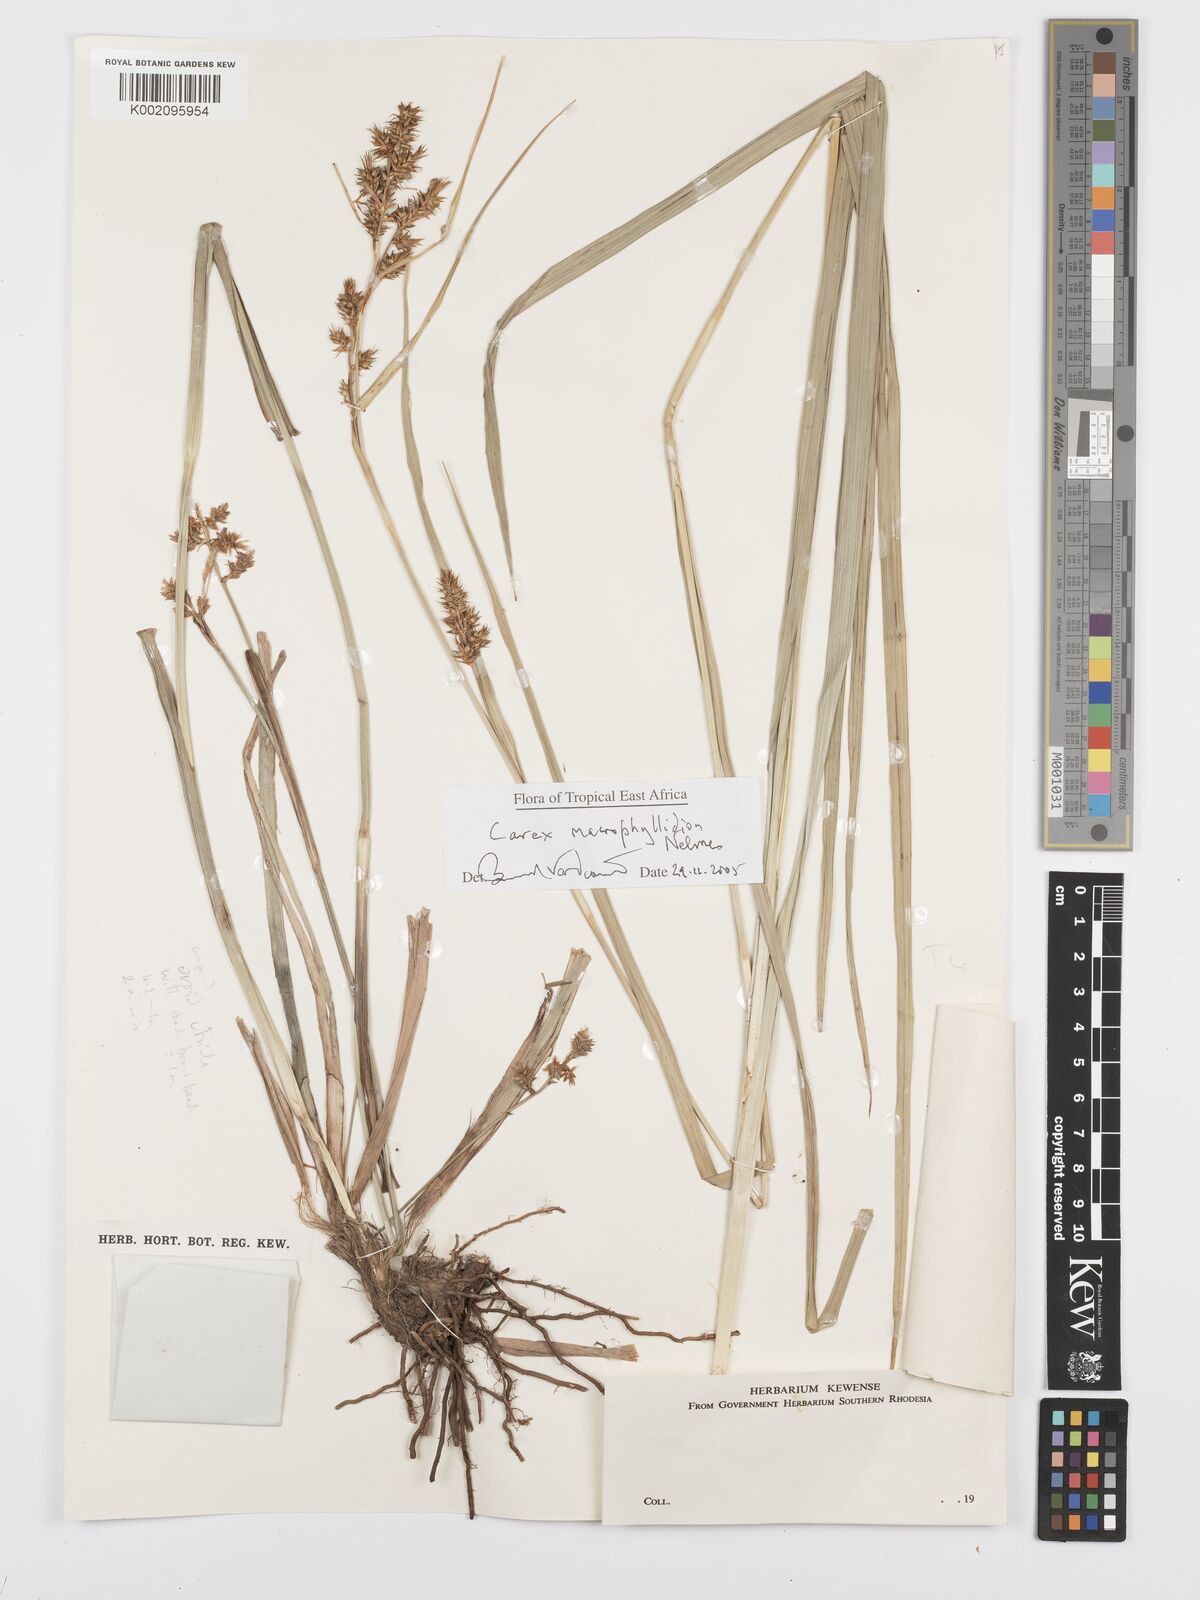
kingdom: Plantae
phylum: Tracheophyta
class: Liliopsida
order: Poales
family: Cyperaceae
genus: Carex
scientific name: Carex macrophyllidion
